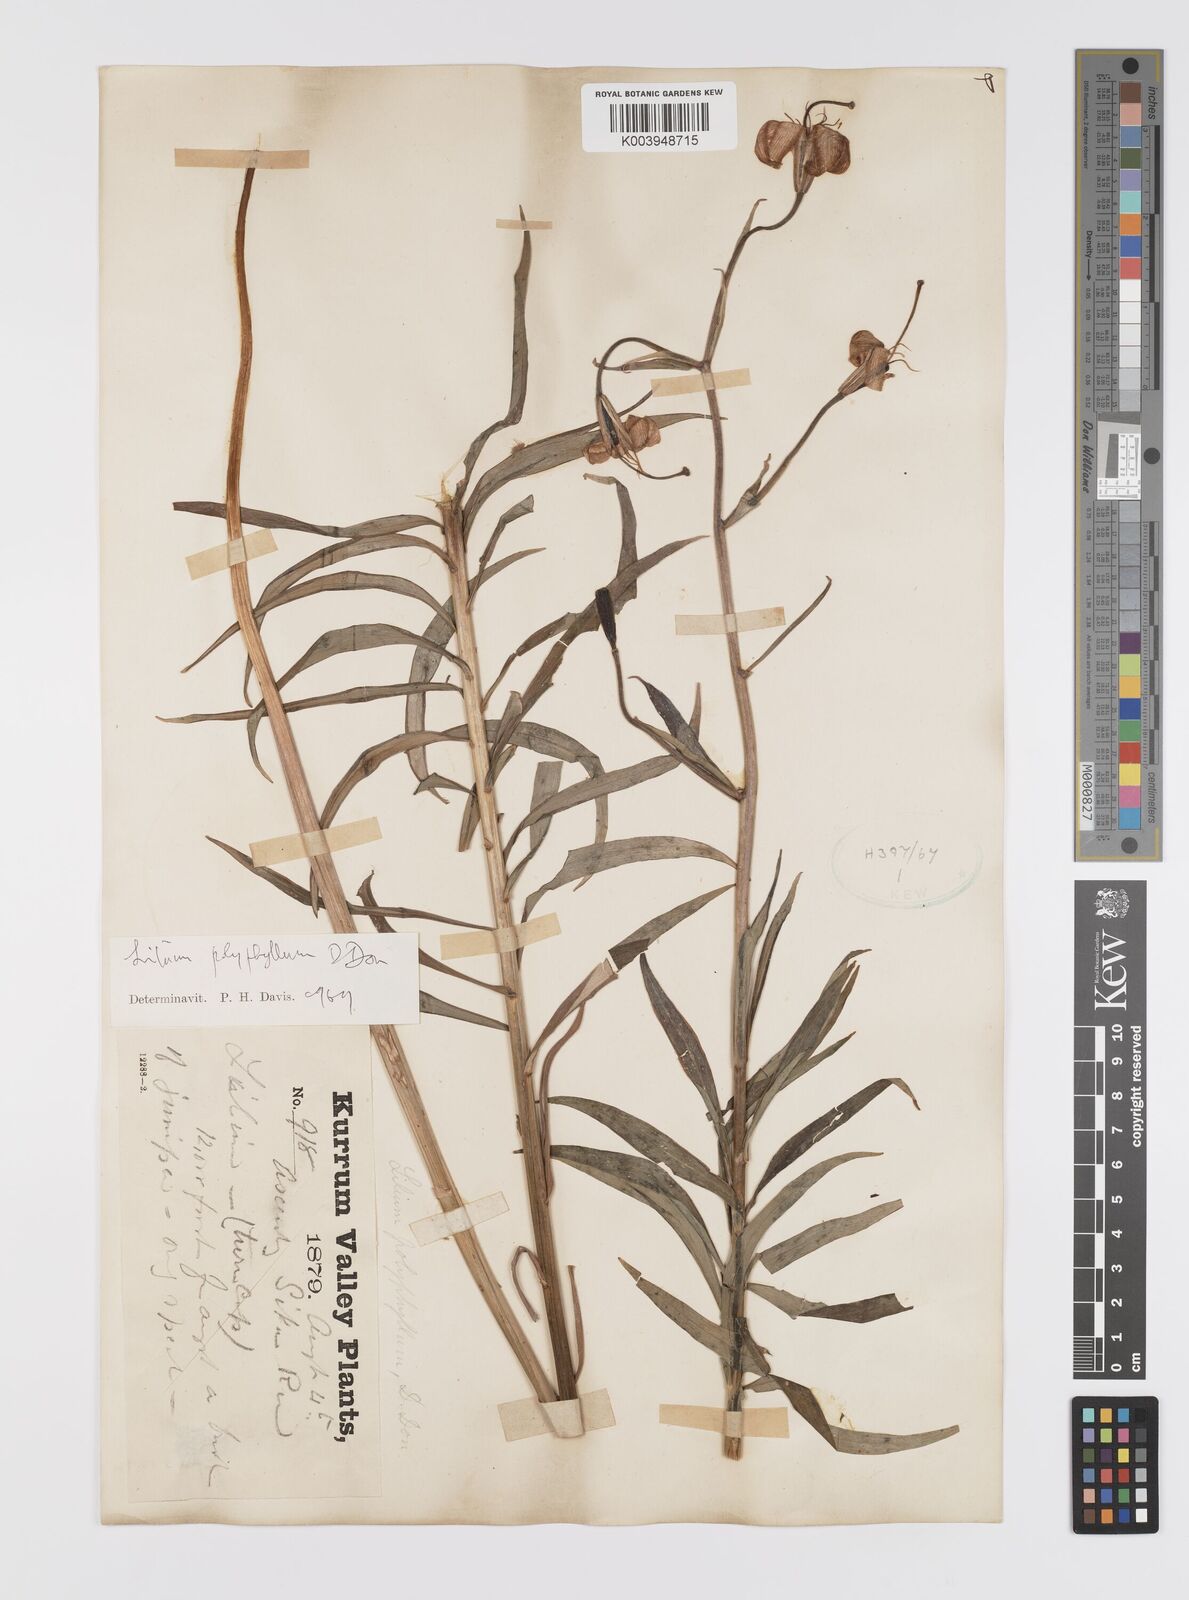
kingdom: Plantae
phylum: Tracheophyta
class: Liliopsida
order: Liliales
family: Liliaceae
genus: Lilium
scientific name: Lilium polyphyllum
